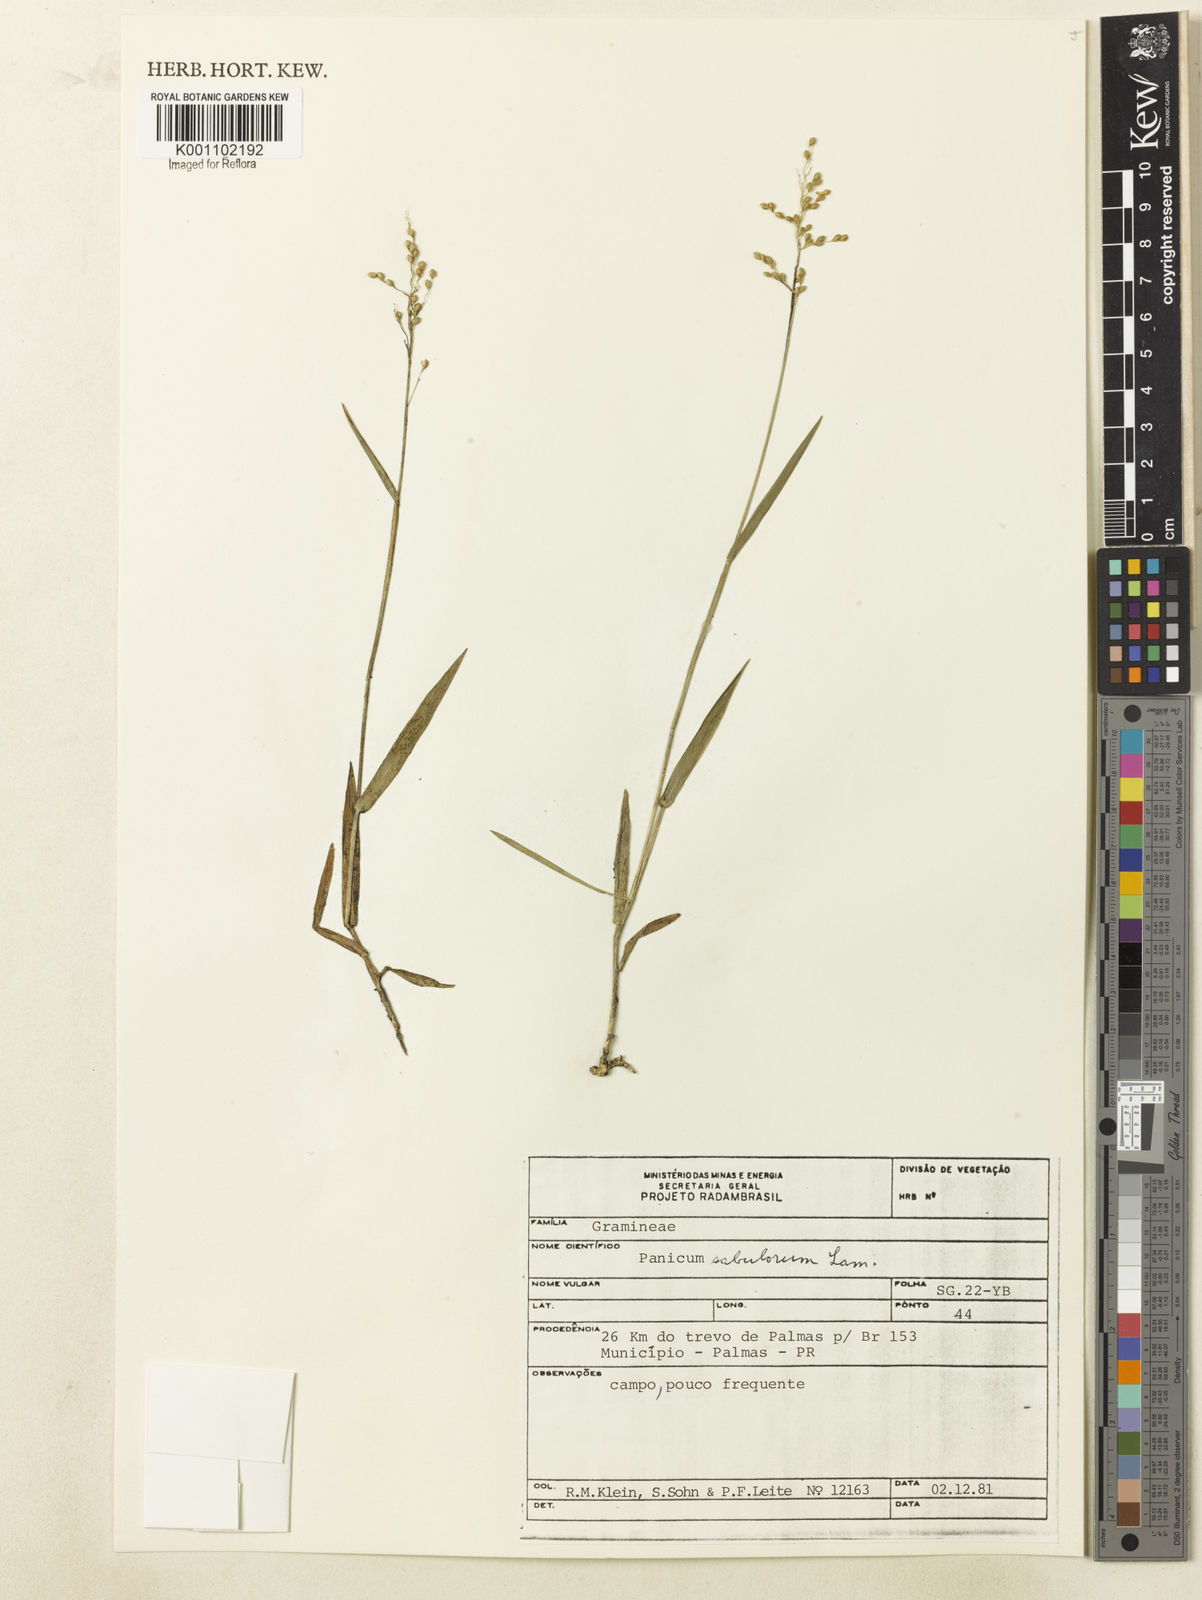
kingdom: Plantae
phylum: Tracheophyta
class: Liliopsida
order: Poales
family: Poaceae
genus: Dichanthelium
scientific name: Dichanthelium sabulorum
